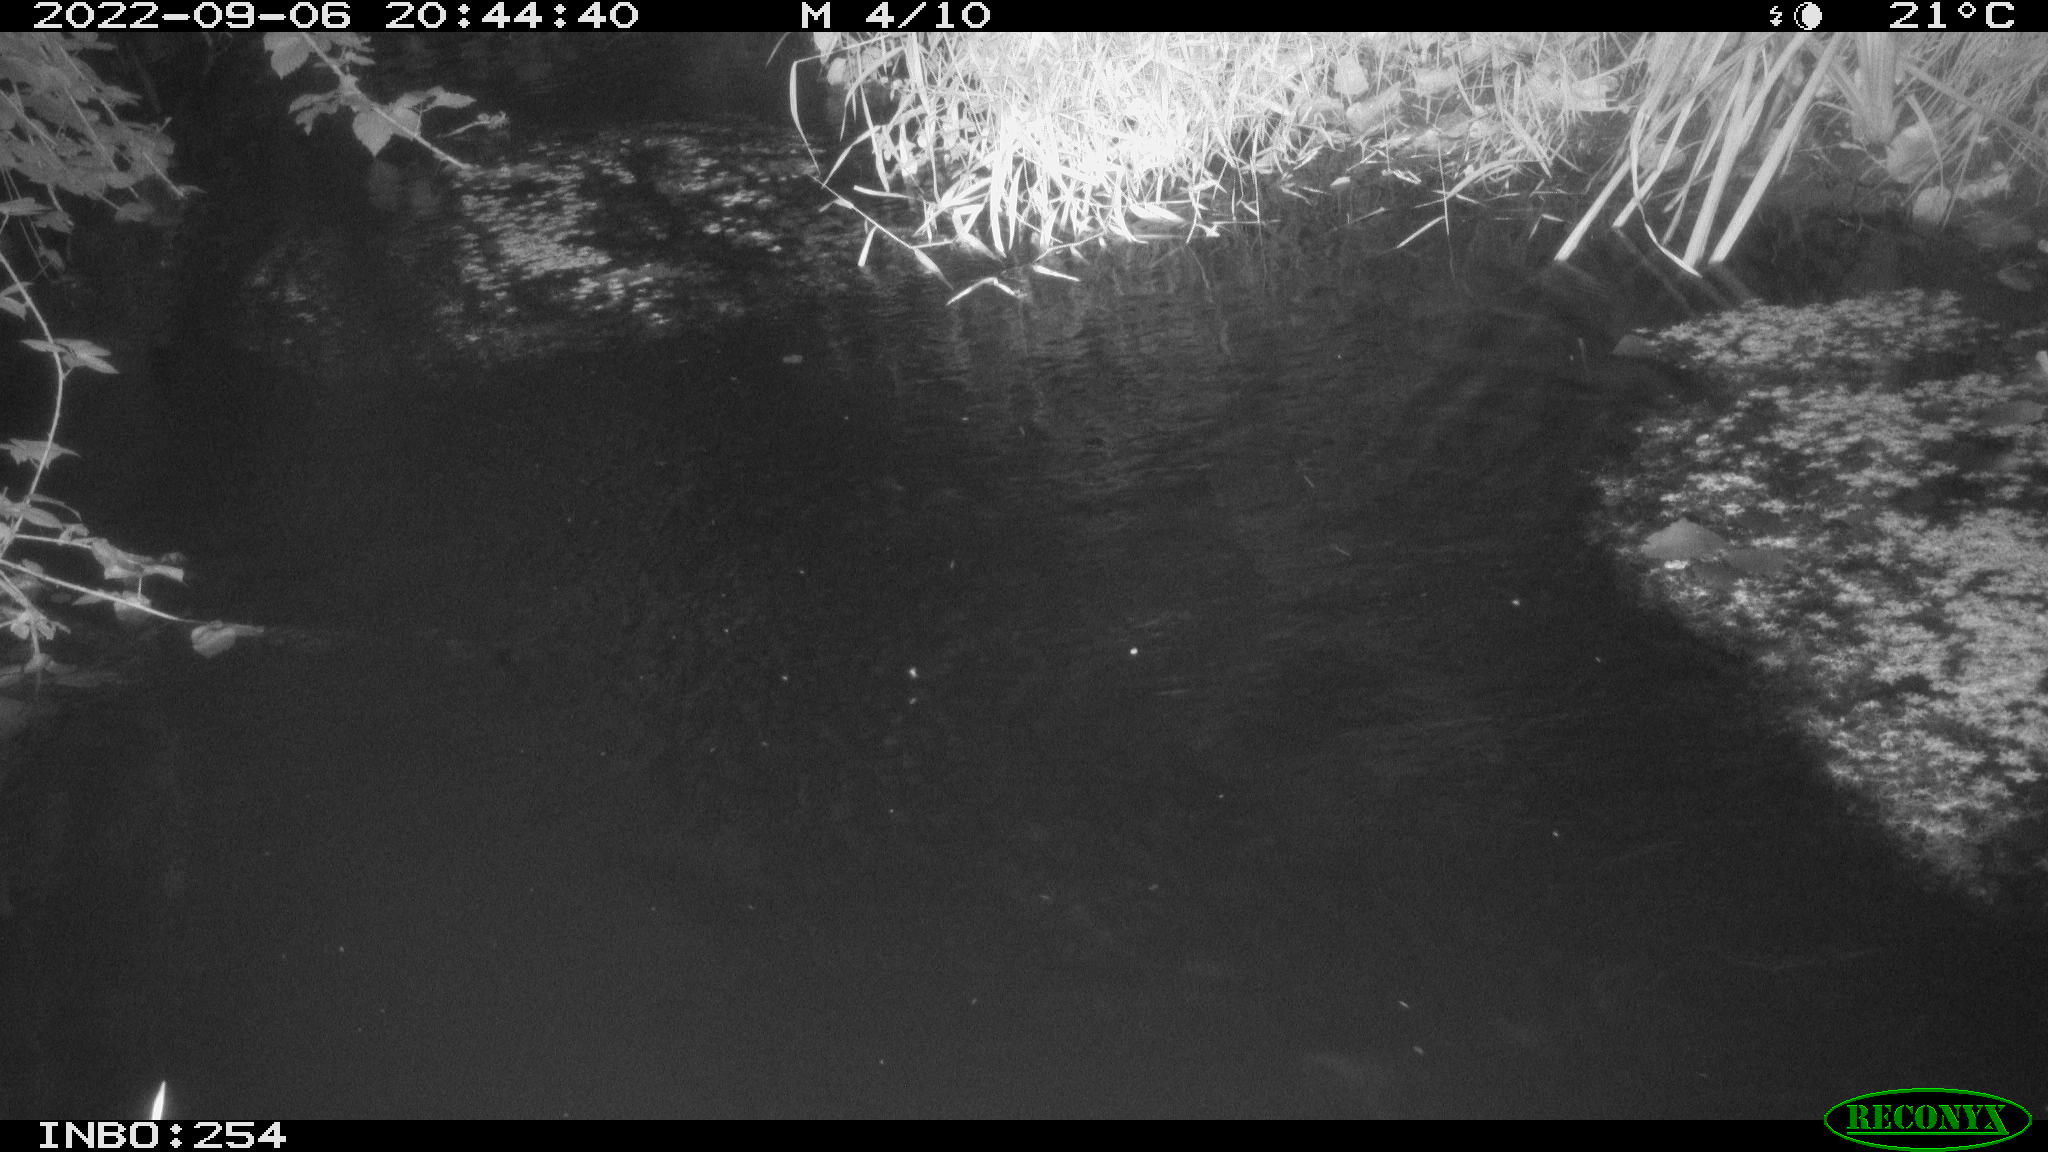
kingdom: Animalia
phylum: Chordata
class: Aves
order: Anseriformes
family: Anatidae
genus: Anas
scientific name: Anas platyrhynchos
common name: Mallard
